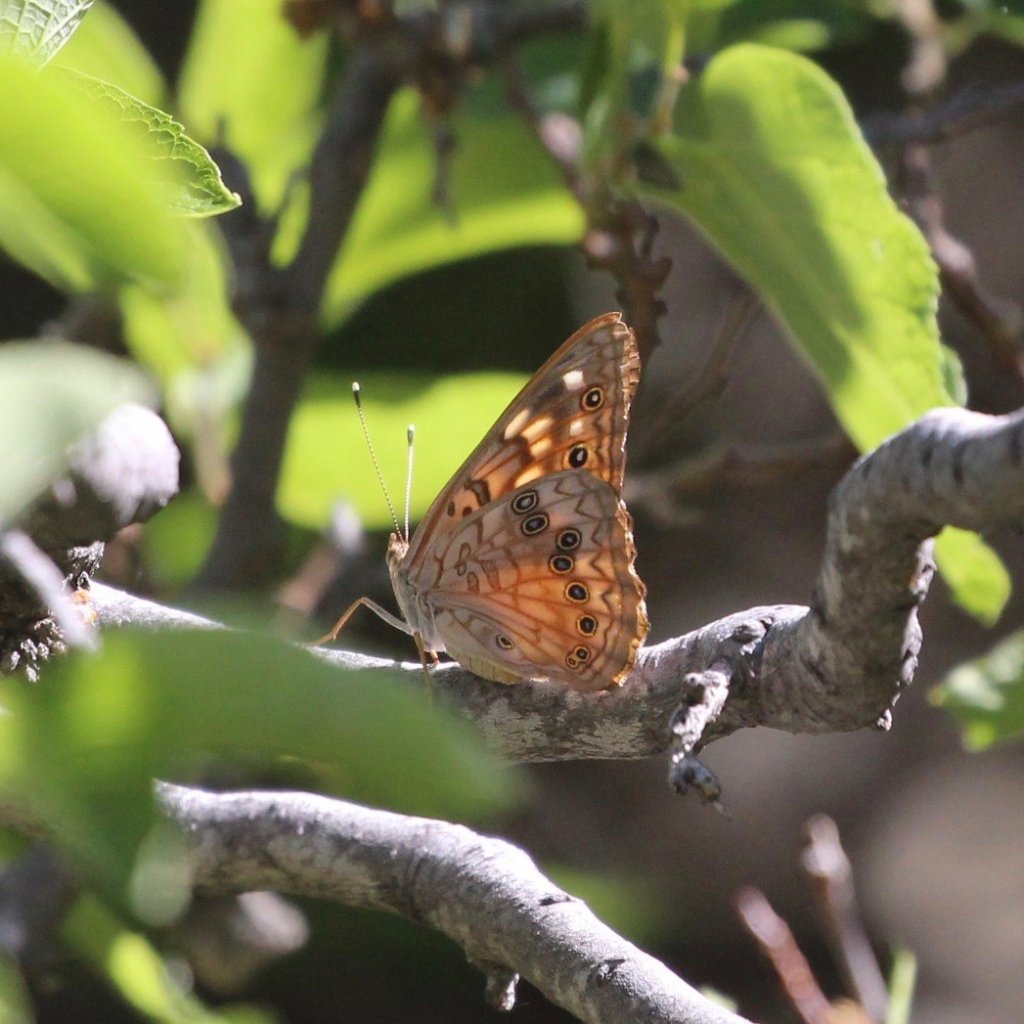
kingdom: Animalia
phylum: Arthropoda
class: Insecta
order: Lepidoptera
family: Nymphalidae
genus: Asterocampa
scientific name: Asterocampa celtis
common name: Hackberry Emperor
